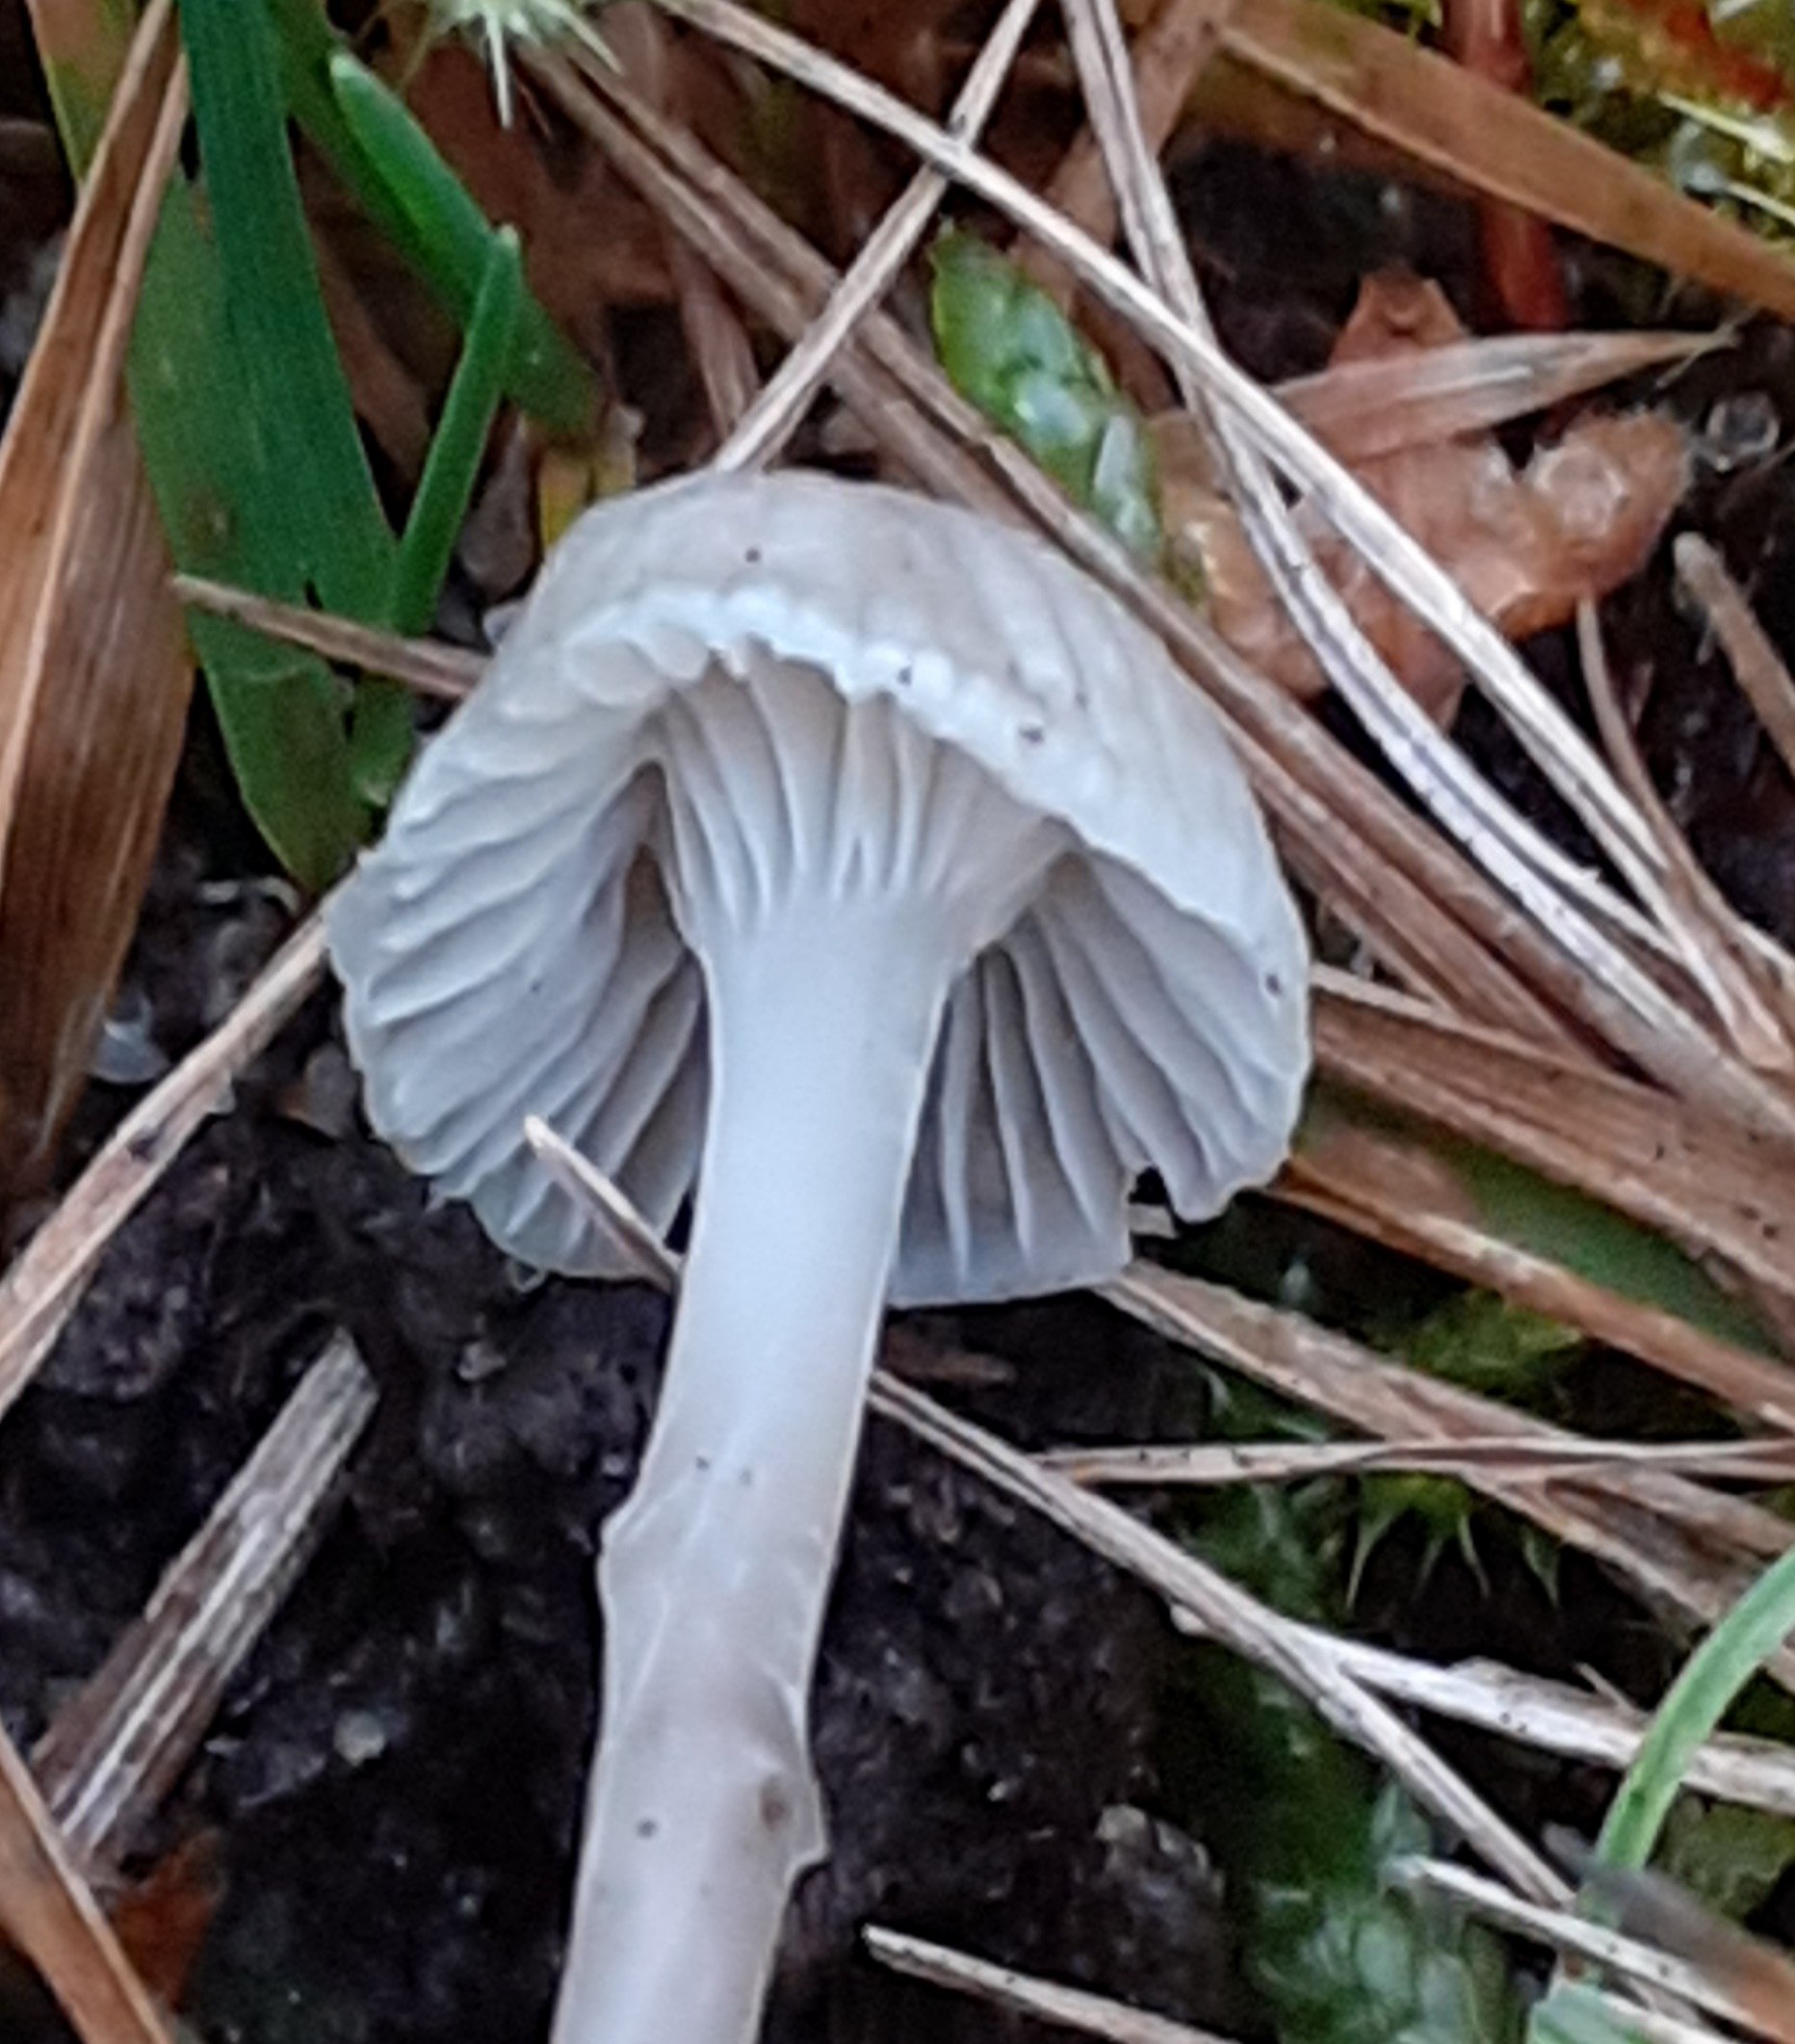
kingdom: Fungi
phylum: Basidiomycota
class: Agaricomycetes
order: Agaricales
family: Mycenaceae
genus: Mycena
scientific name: Mycena cinerella
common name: mel-huesvamp
